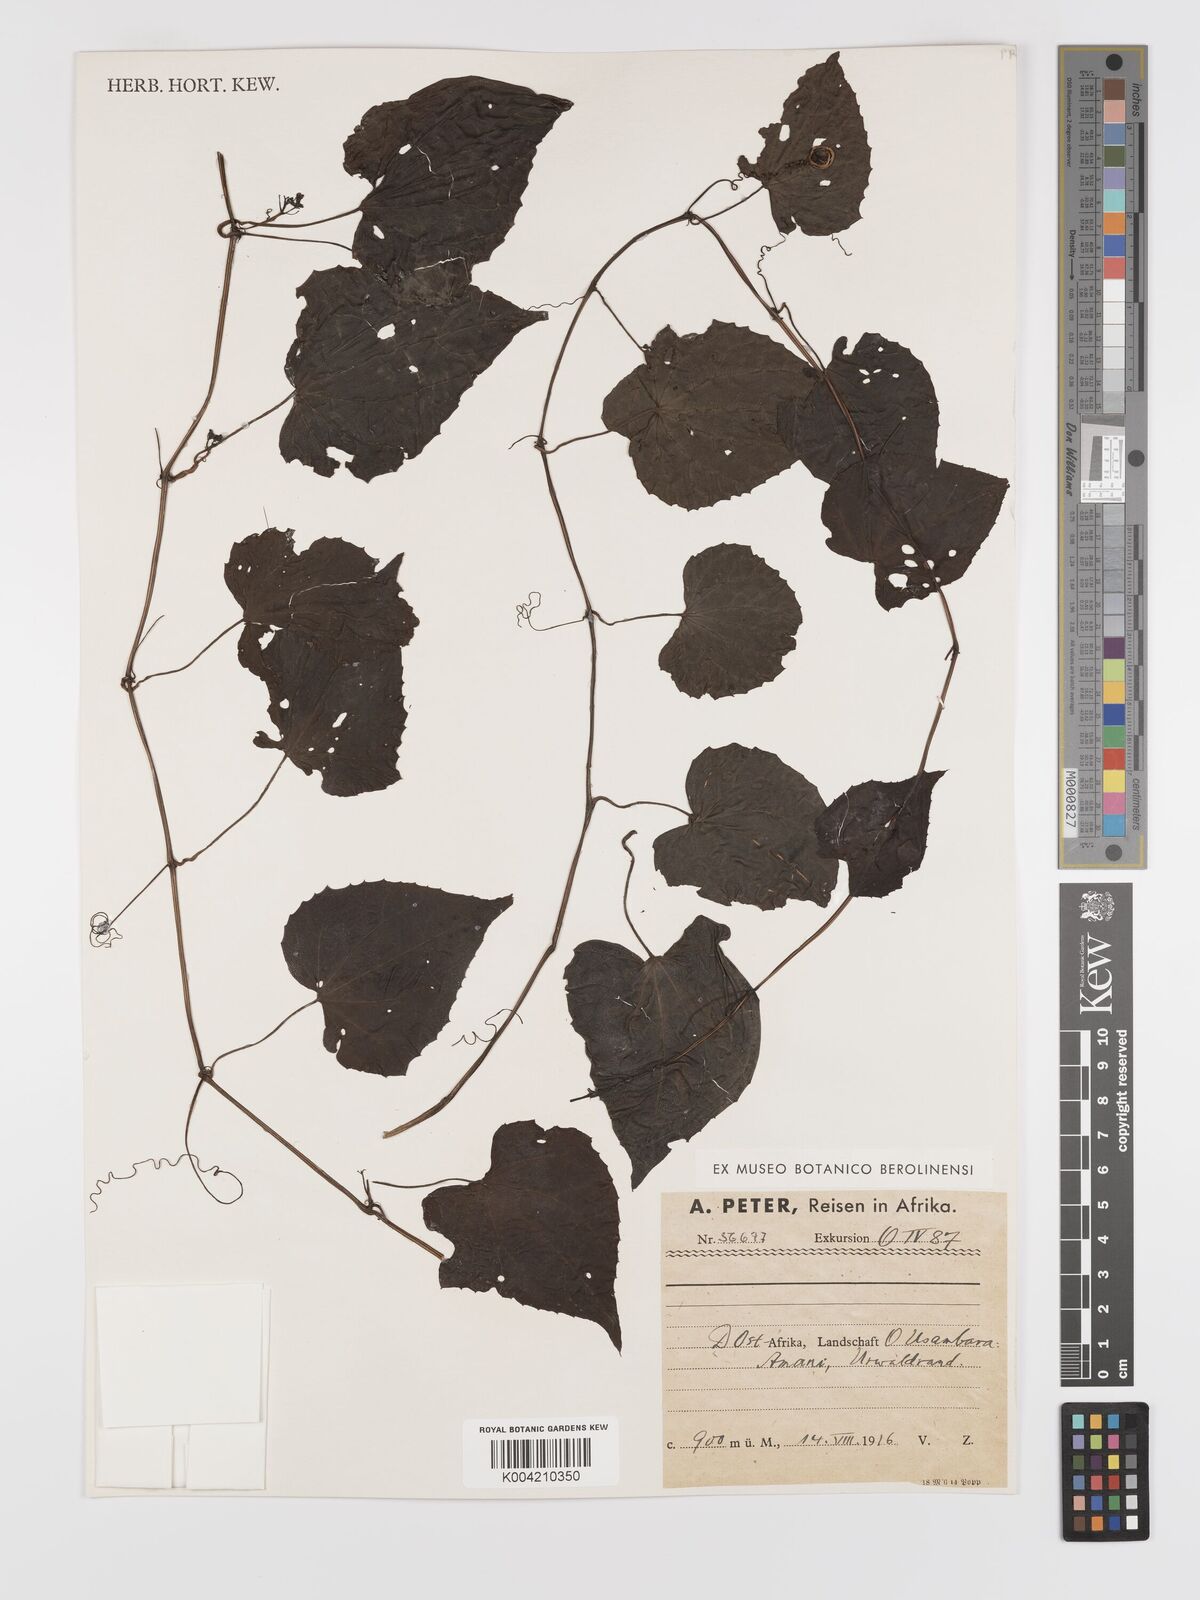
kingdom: Plantae
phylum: Tracheophyta
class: Magnoliopsida
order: Cucurbitales
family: Cucurbitaceae
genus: Zehneria
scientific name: Zehneria emirnensis
